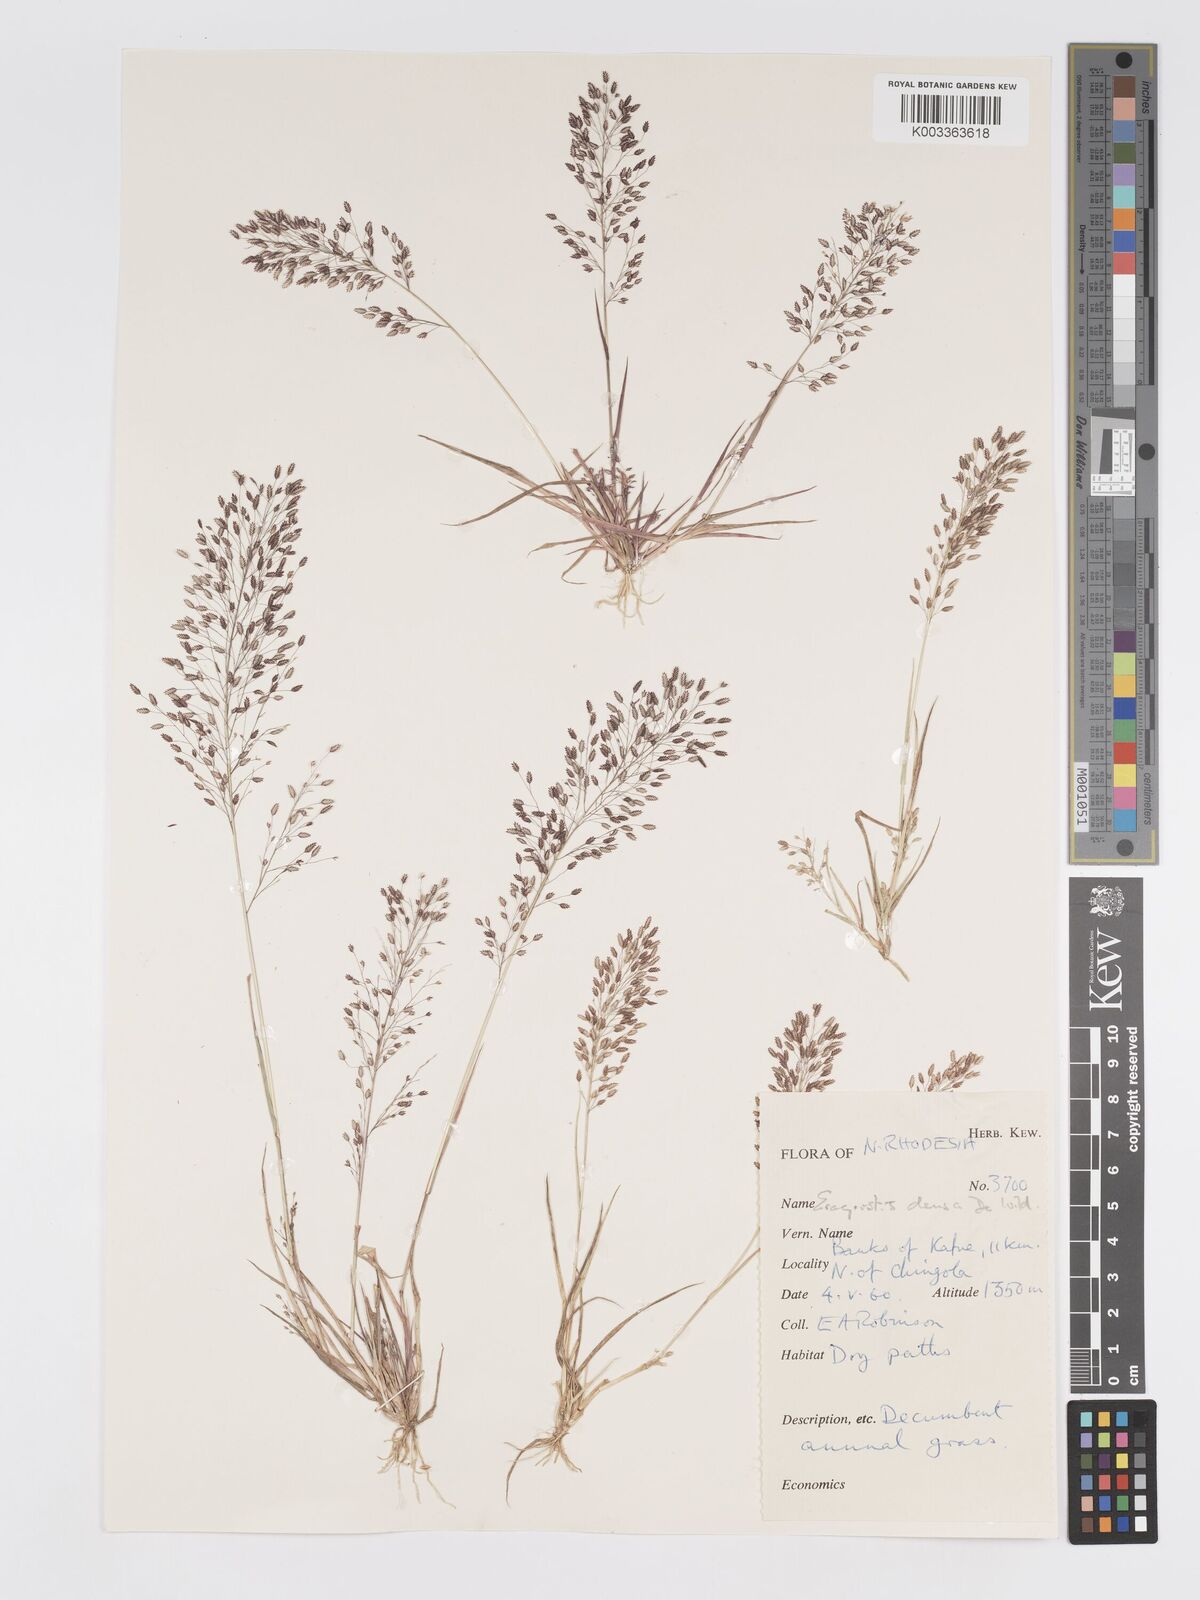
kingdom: Plantae
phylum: Tracheophyta
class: Liliopsida
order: Poales
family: Poaceae
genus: Eragrostis
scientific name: Eragrostis welwitschii
